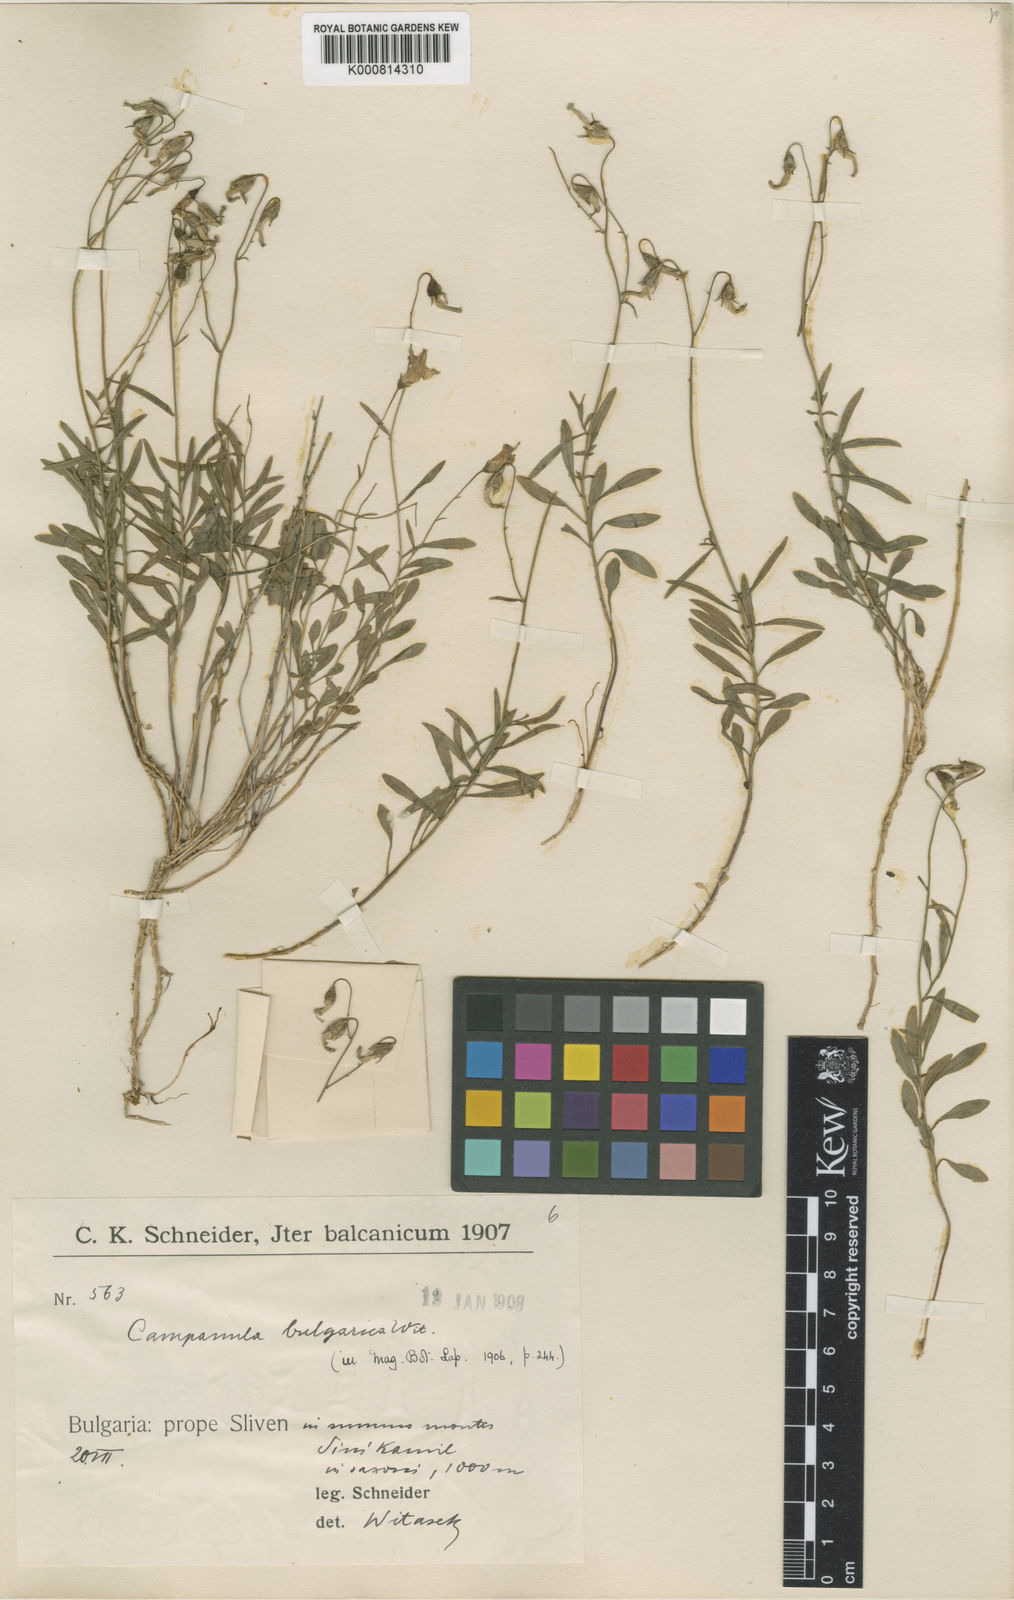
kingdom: Plantae
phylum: Tracheophyta
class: Magnoliopsida
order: Asterales
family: Campanulaceae
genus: Campanula
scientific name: Campanula velebitica
